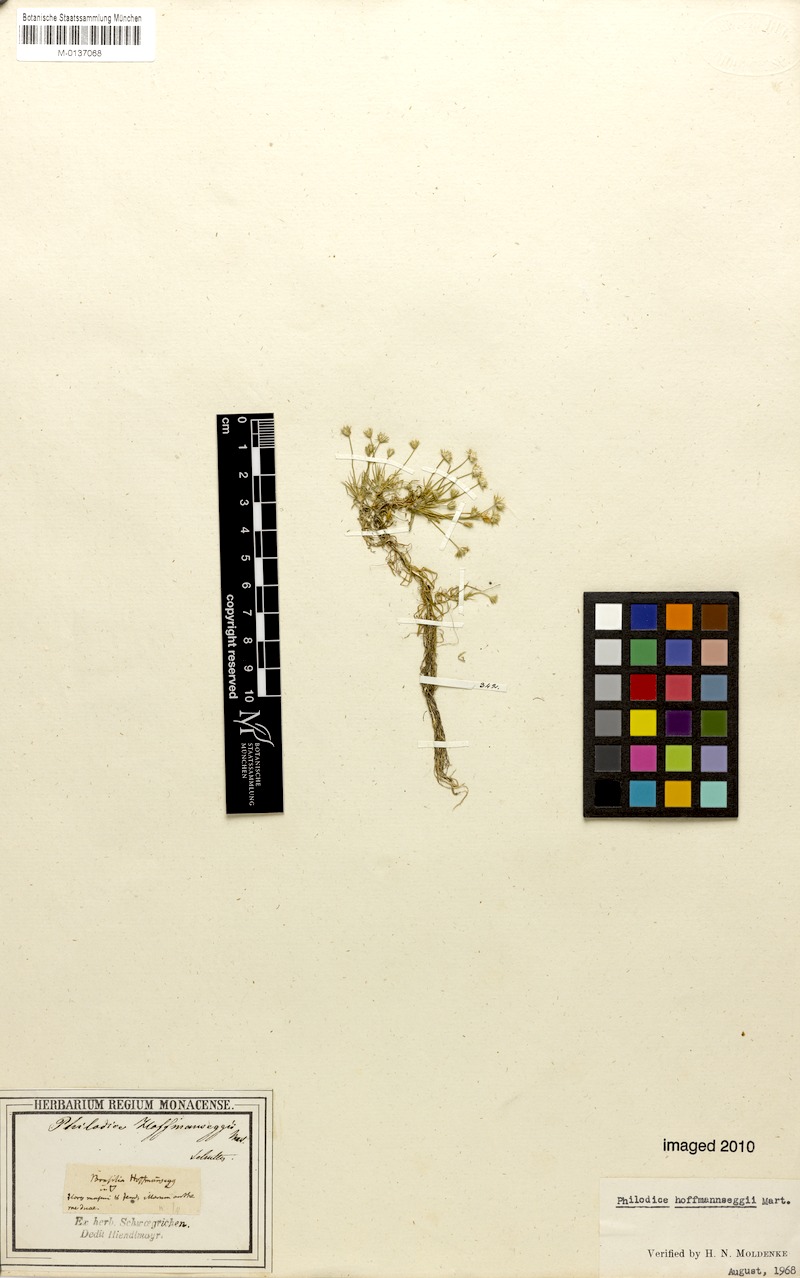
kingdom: Plantae
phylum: Tracheophyta
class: Liliopsida
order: Poales
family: Eriocaulaceae
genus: Syngonanthus
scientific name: Syngonanthus cuyabensis
